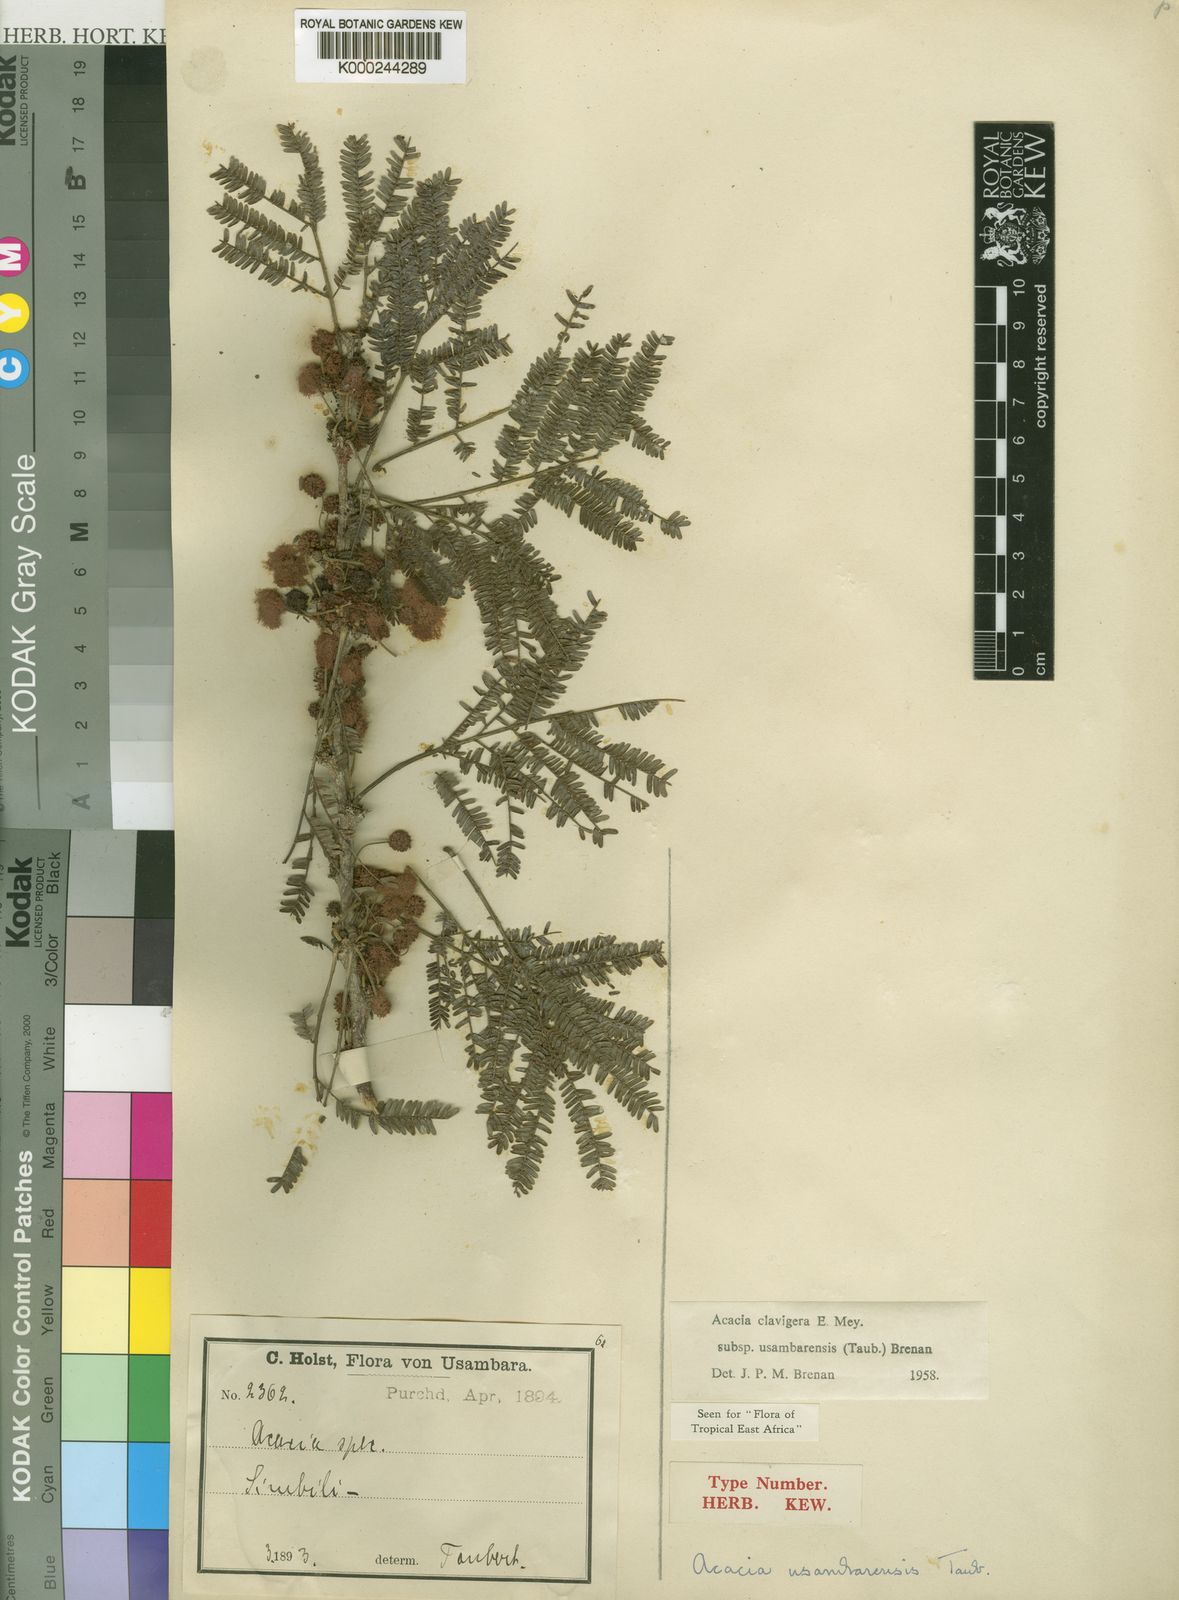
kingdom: Plantae
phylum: Tracheophyta
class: Magnoliopsida
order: Fabales
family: Fabaceae
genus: Vachellia
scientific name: Vachellia robusta
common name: Ankle thorn
